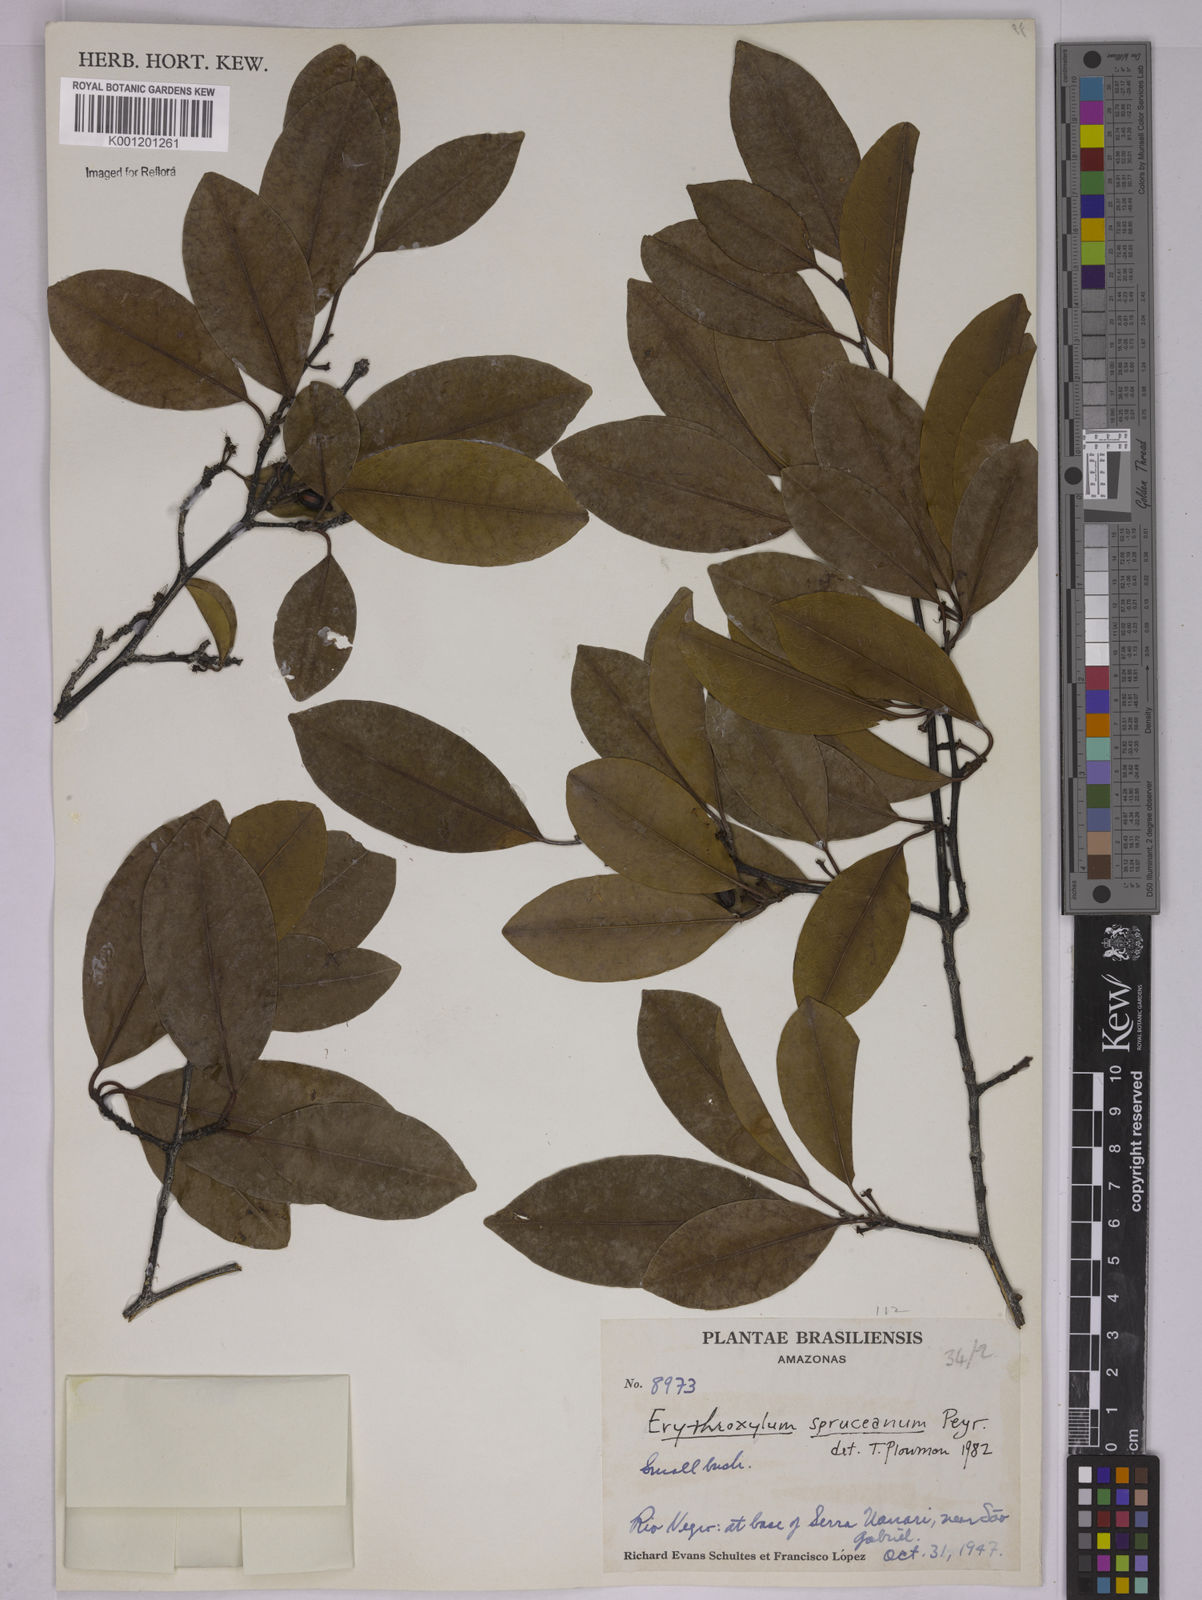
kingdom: Plantae
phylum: Tracheophyta
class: Magnoliopsida
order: Malpighiales
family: Erythroxylaceae
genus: Erythroxylum
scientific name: Erythroxylum spruceanum
